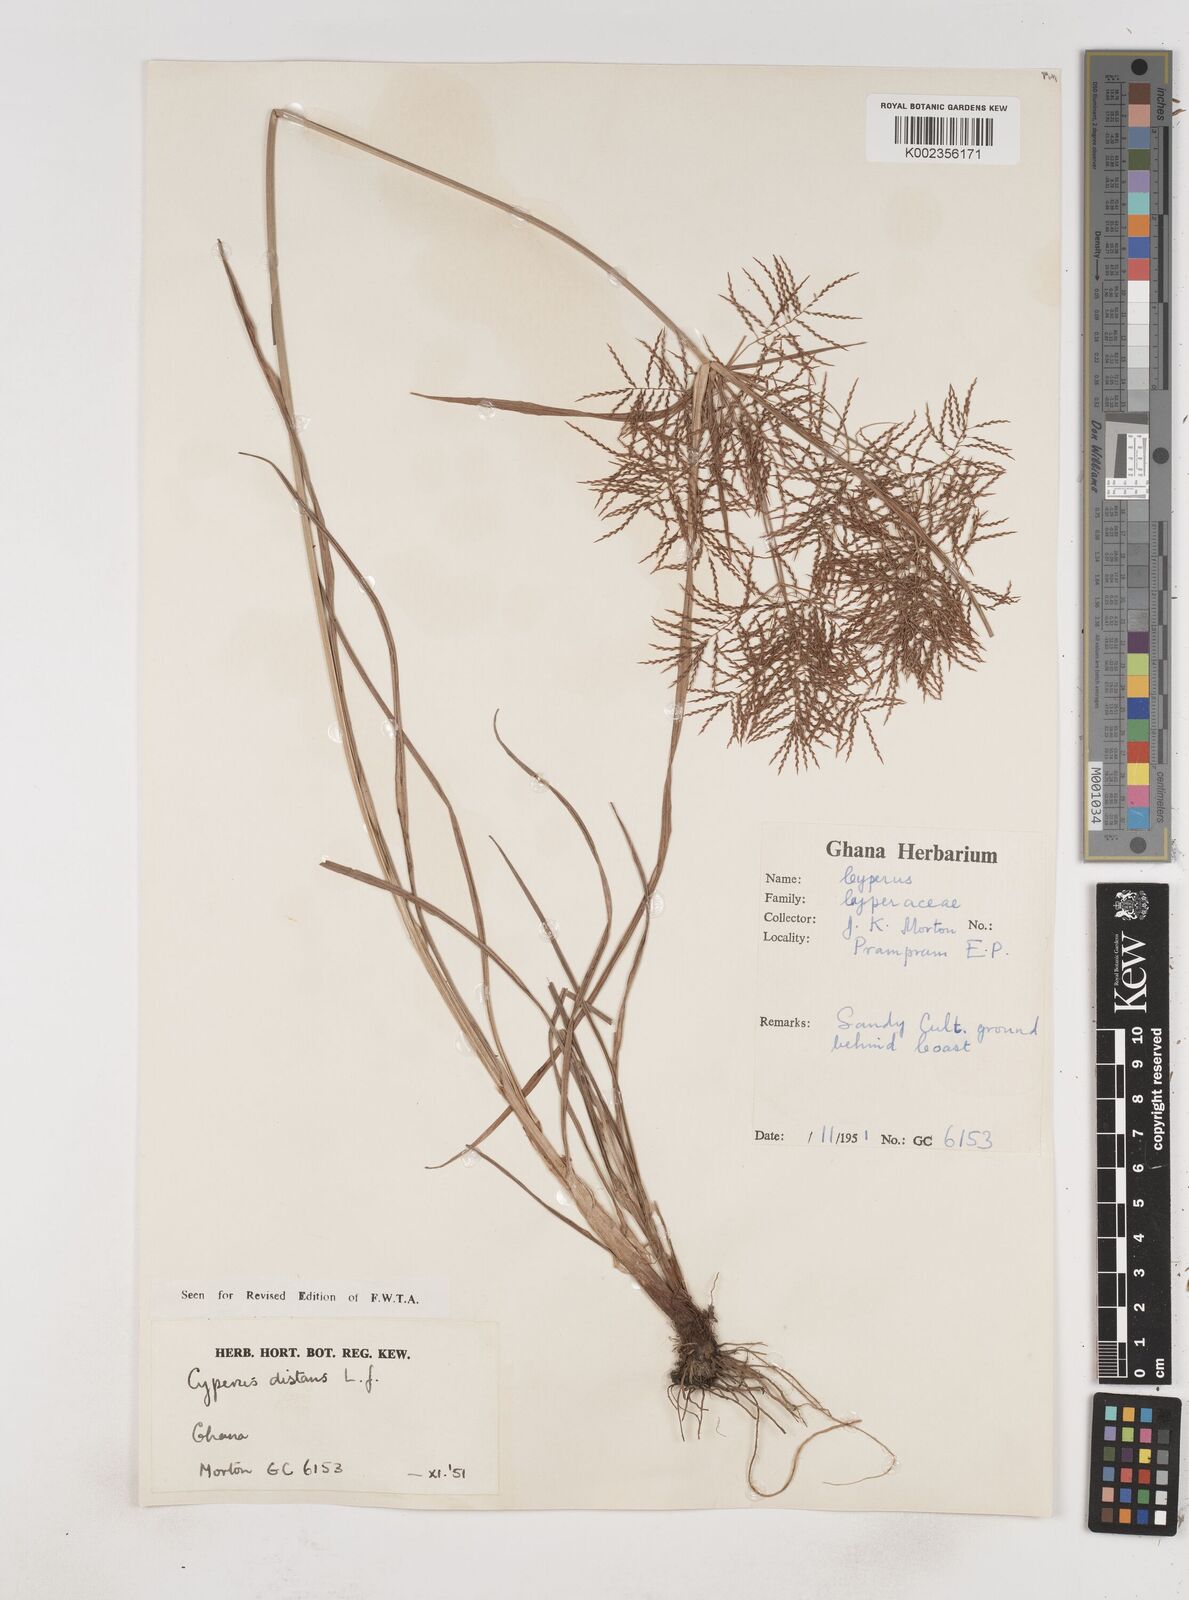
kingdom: Plantae
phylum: Tracheophyta
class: Liliopsida
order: Poales
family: Cyperaceae
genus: Cyperus
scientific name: Cyperus distans
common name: Slender cyperus
